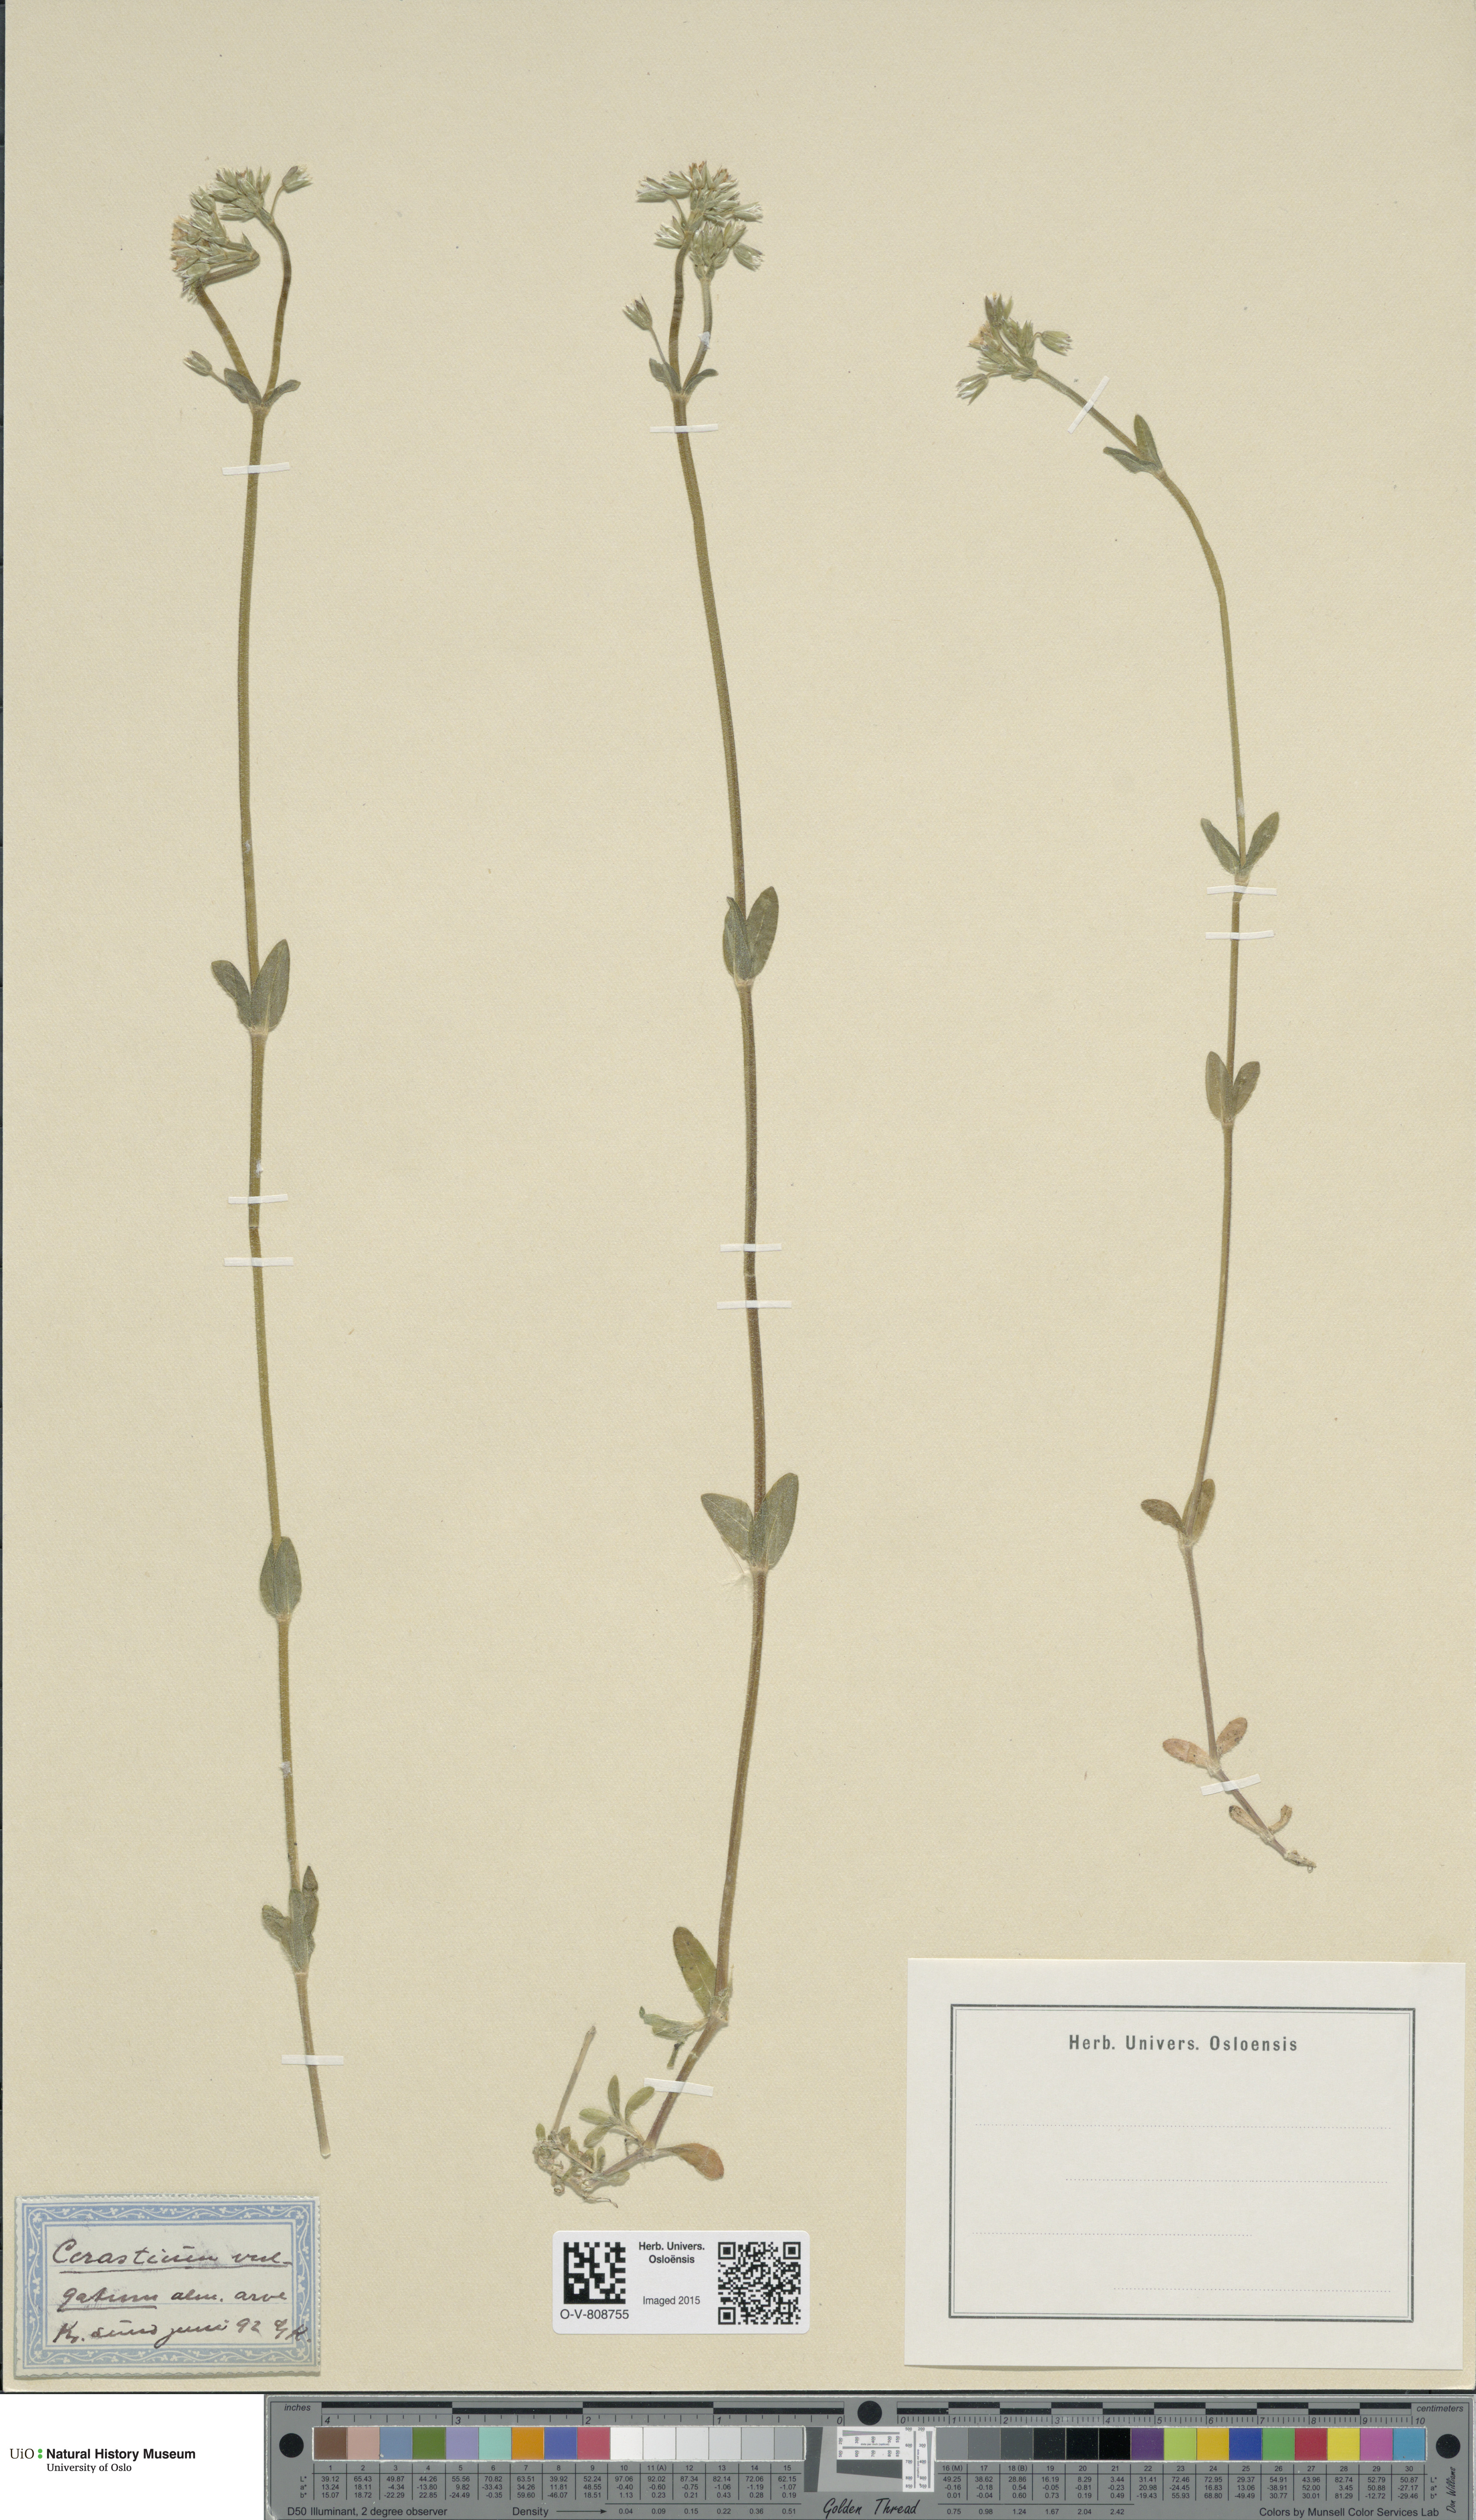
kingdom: Plantae
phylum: Tracheophyta
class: Magnoliopsida
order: Caryophyllales
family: Caryophyllaceae
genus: Cerastium
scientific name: Cerastium holosteoides
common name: Big chickweed
